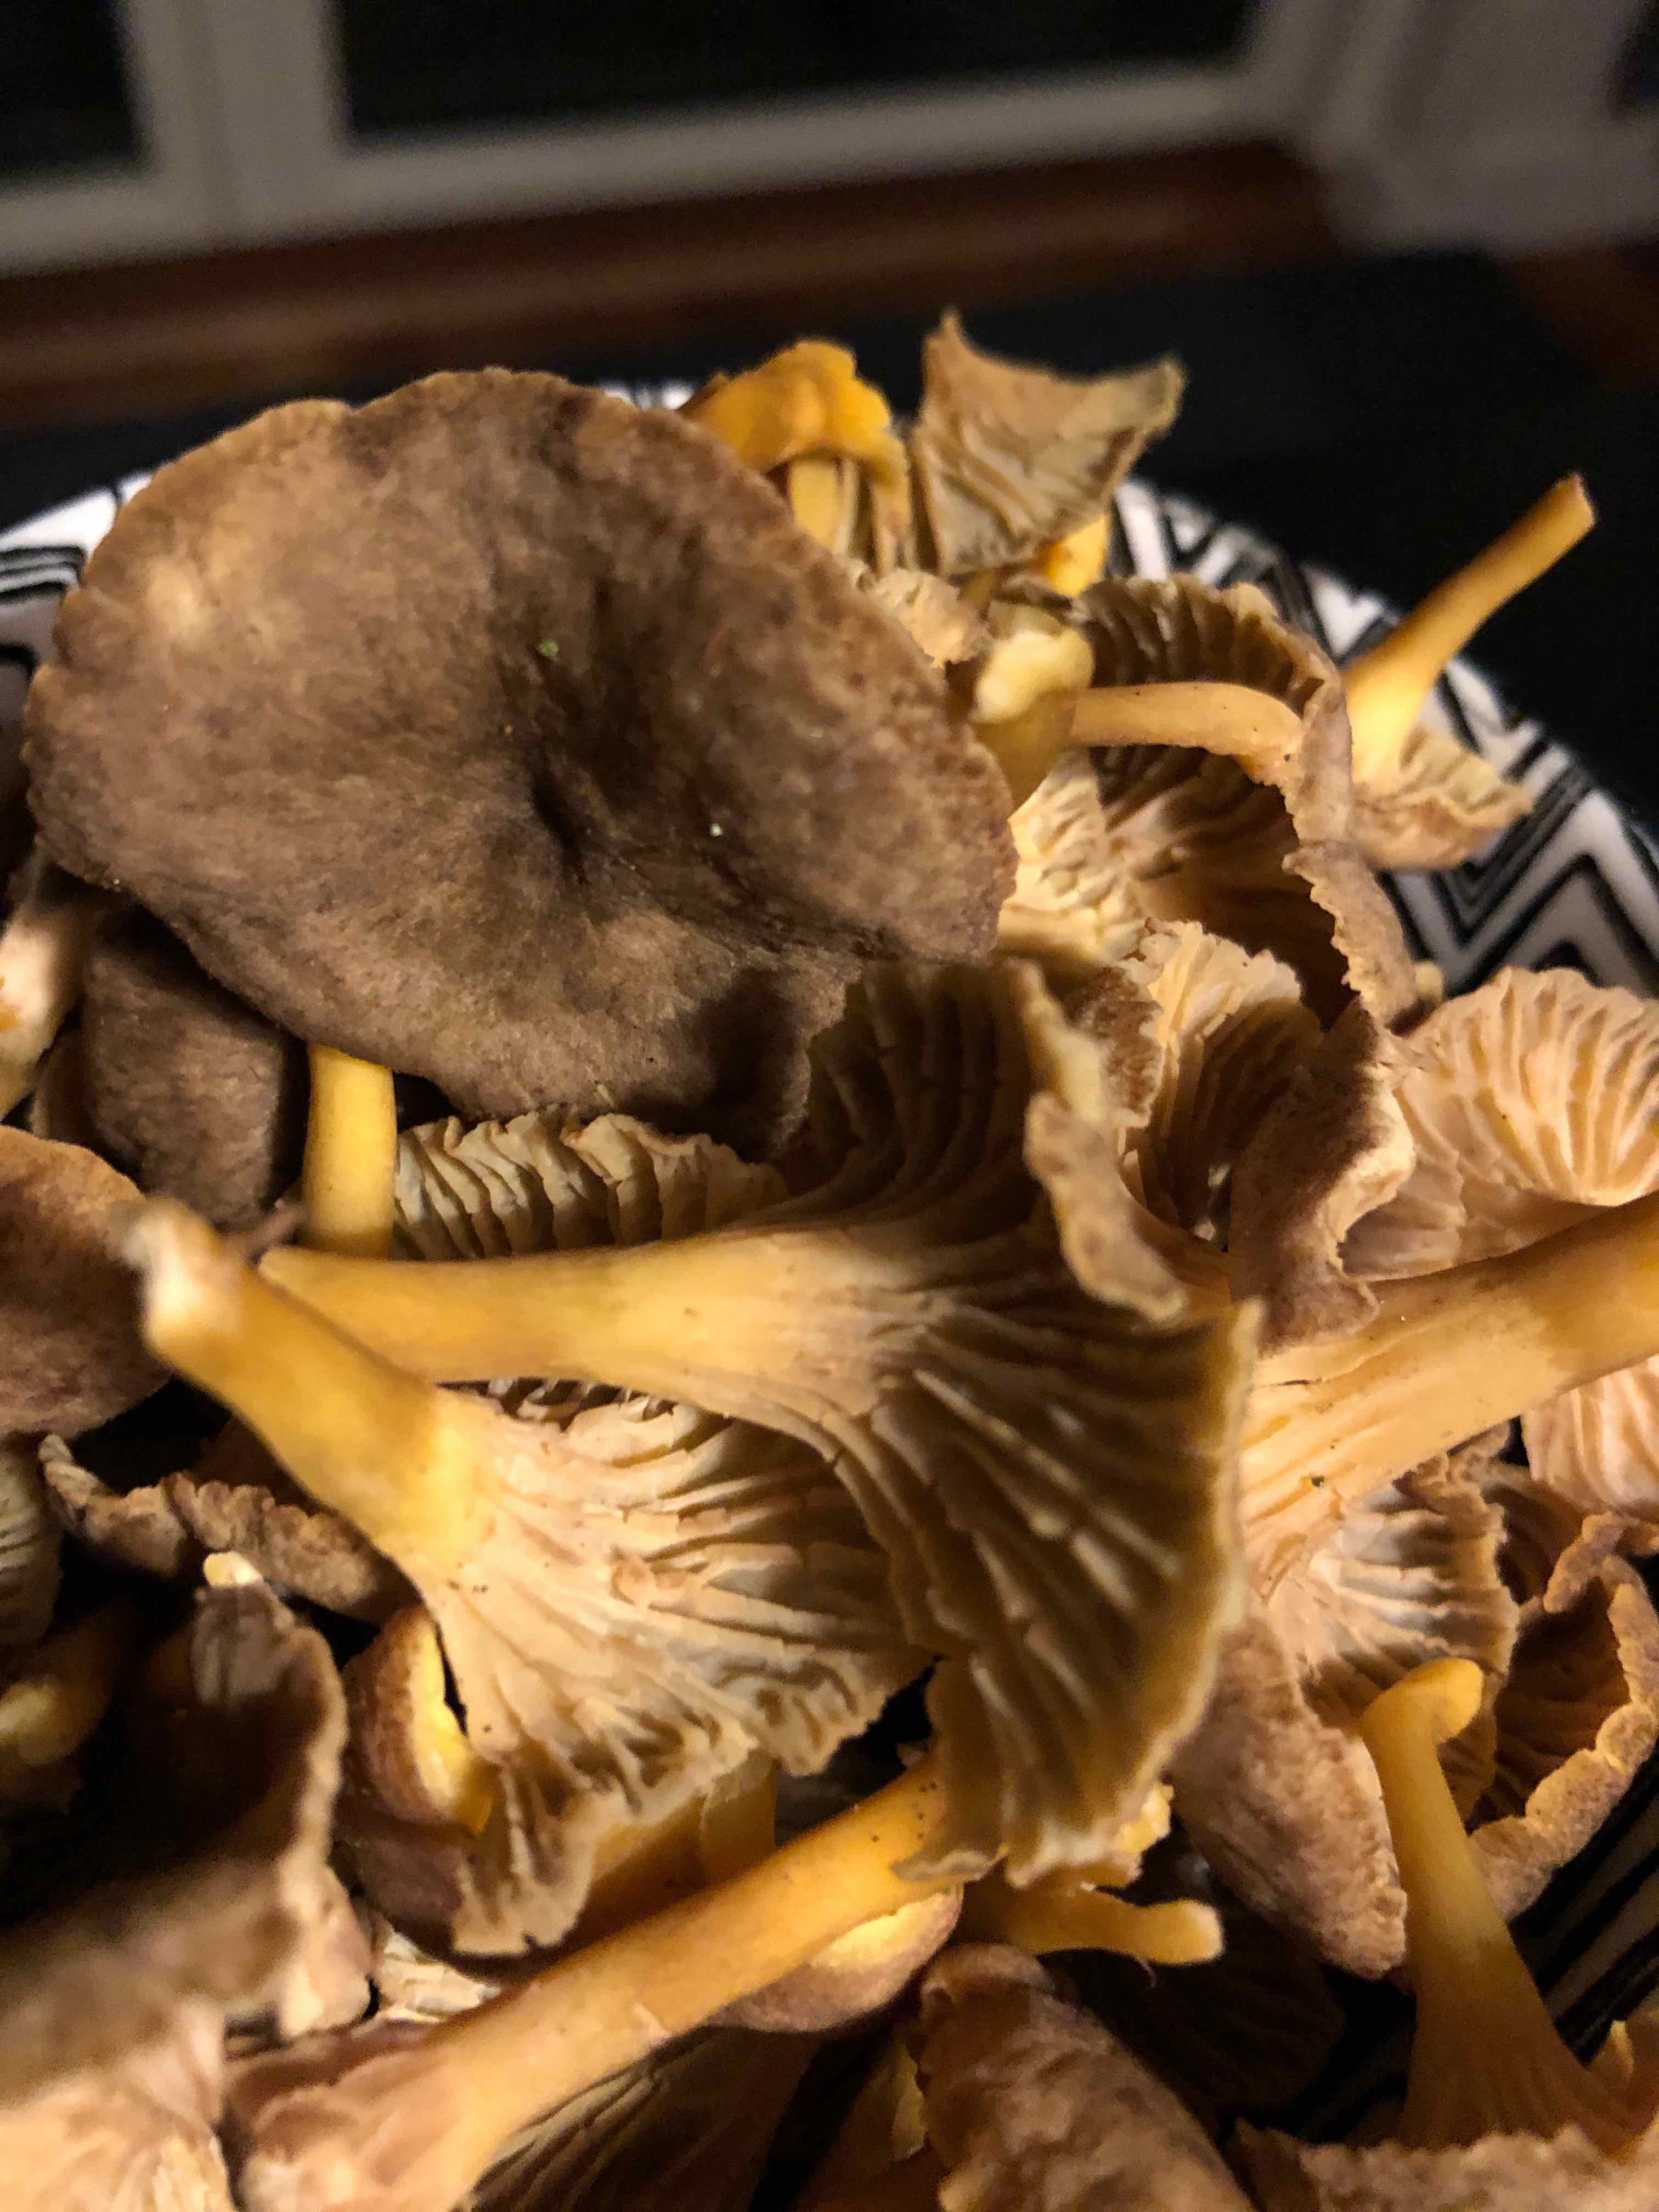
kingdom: Fungi
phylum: Basidiomycota
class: Agaricomycetes
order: Cantharellales
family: Hydnaceae
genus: Craterellus
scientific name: Craterellus tubaeformis
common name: tragt-kantarel
